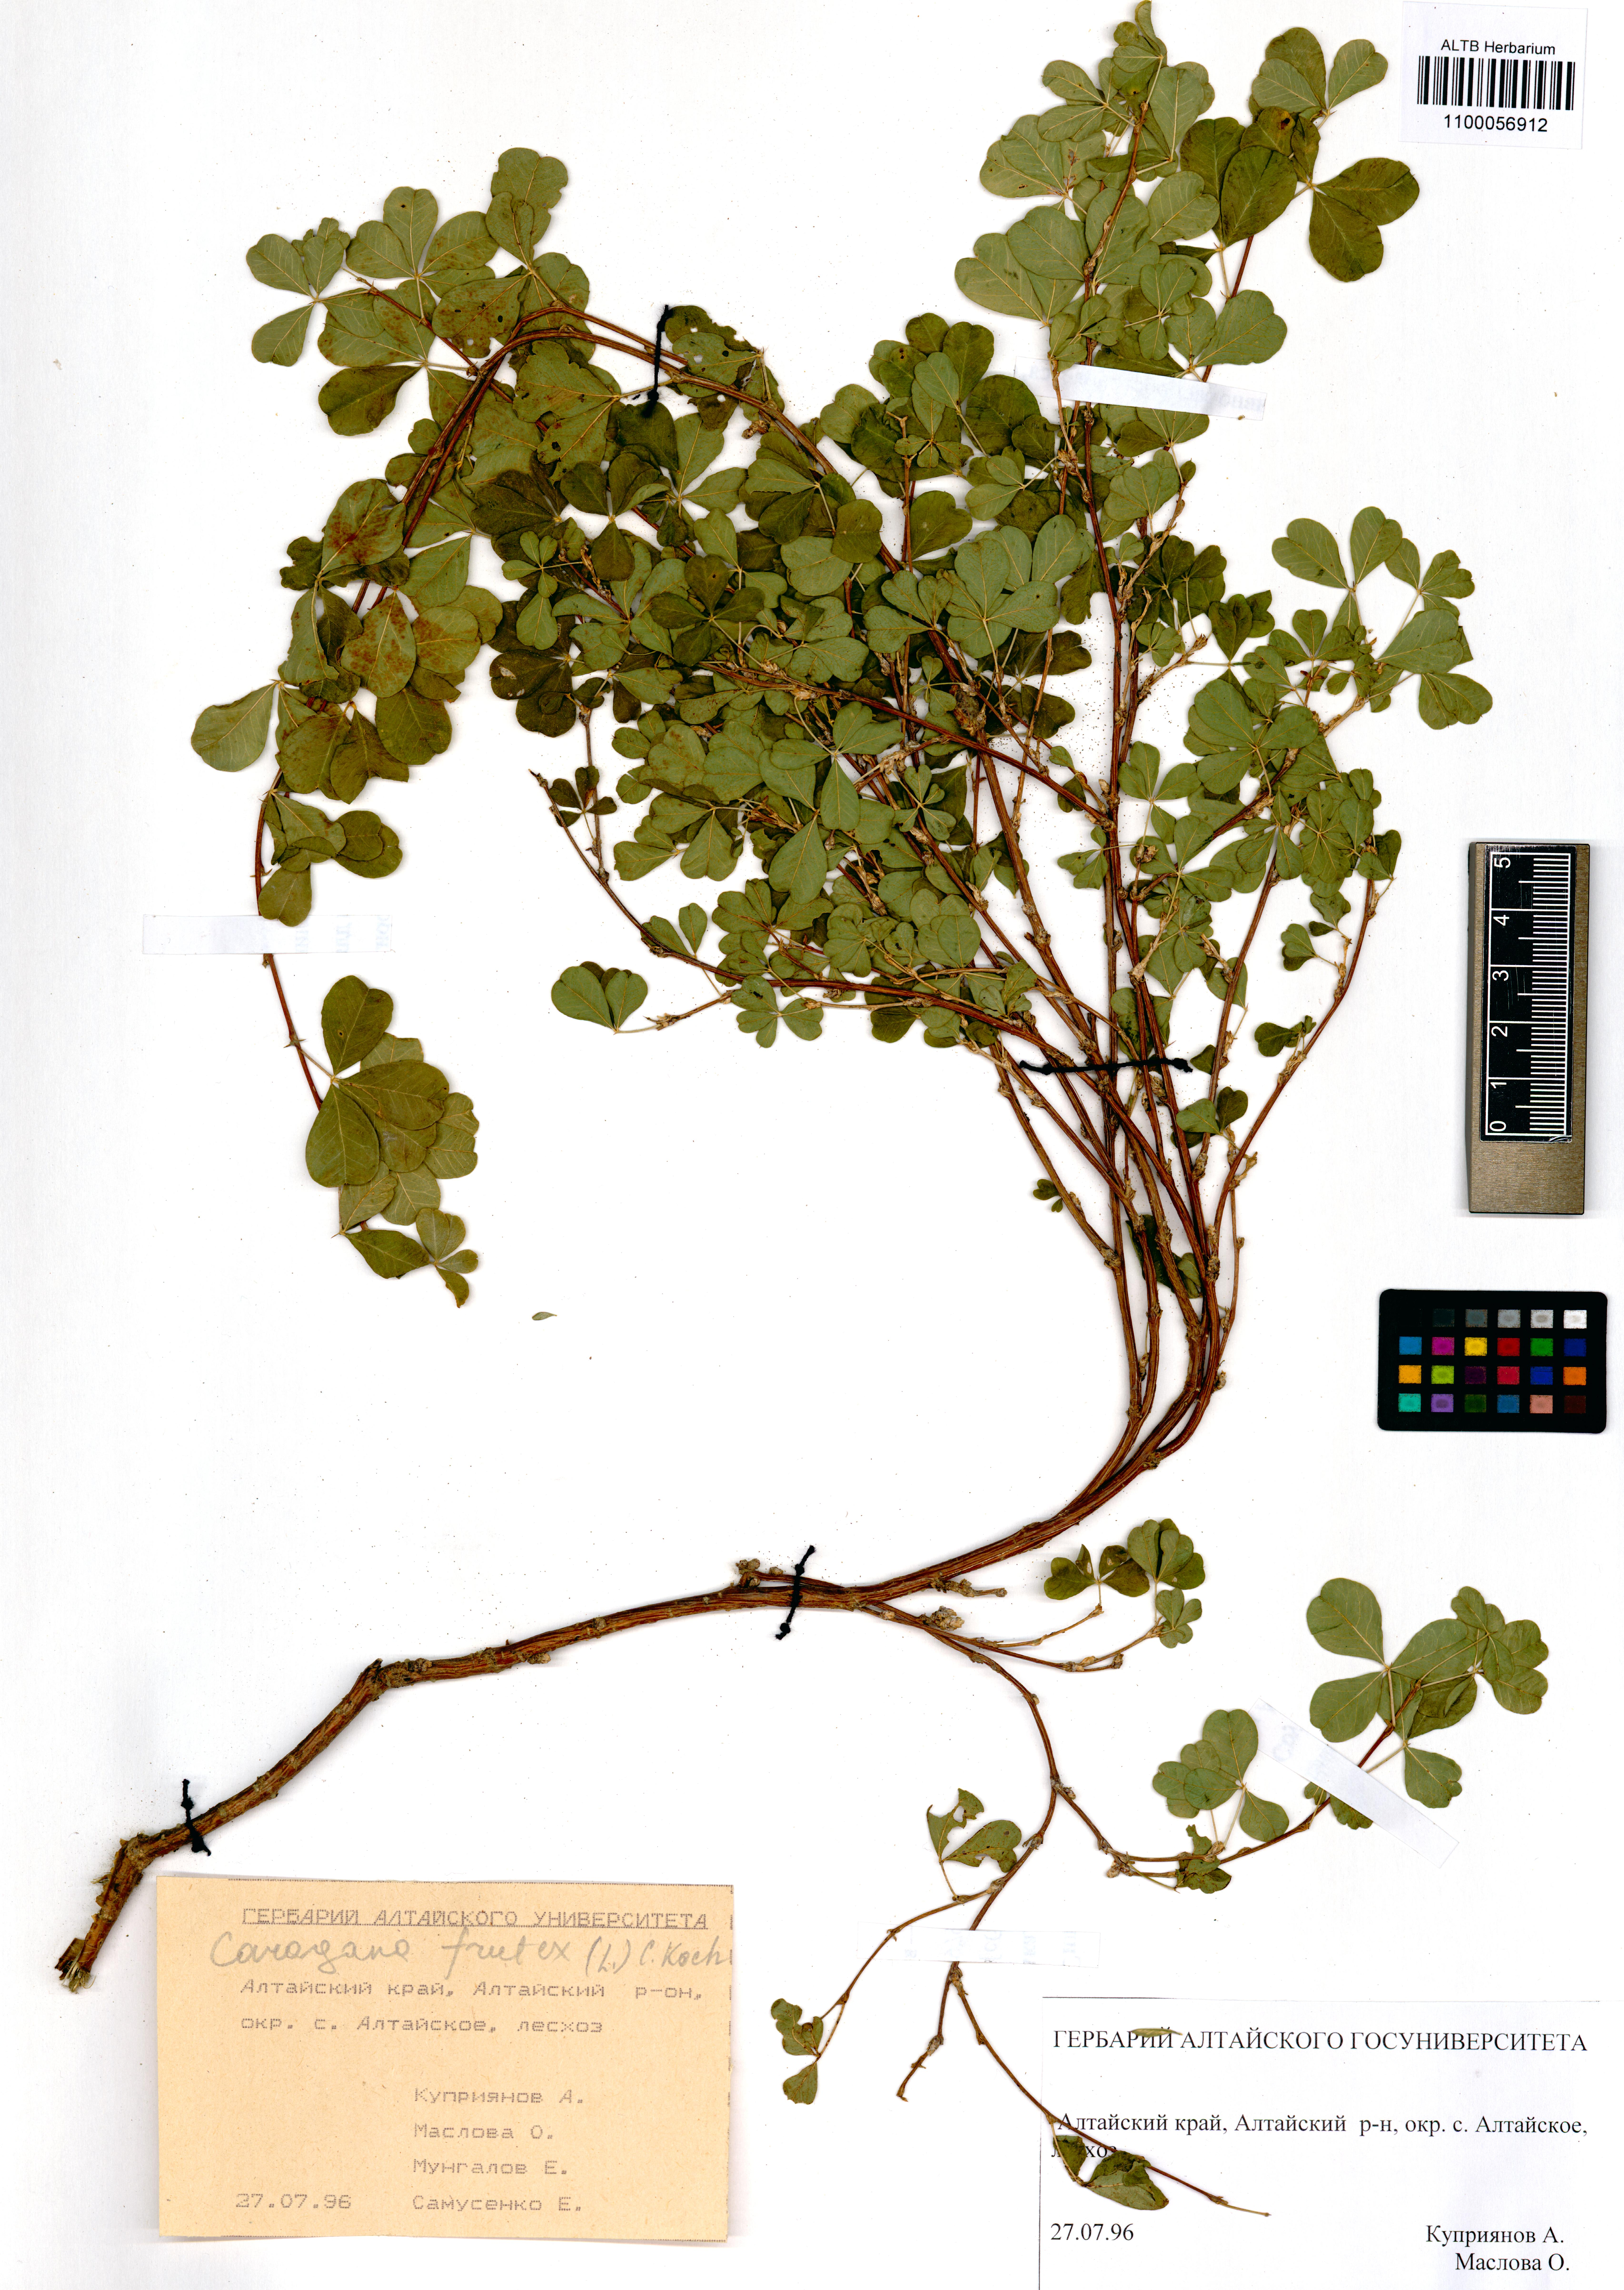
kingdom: Plantae
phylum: Tracheophyta
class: Magnoliopsida
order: Fabales
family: Fabaceae
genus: Caragana
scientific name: Caragana frutex
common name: Russian peashrub
